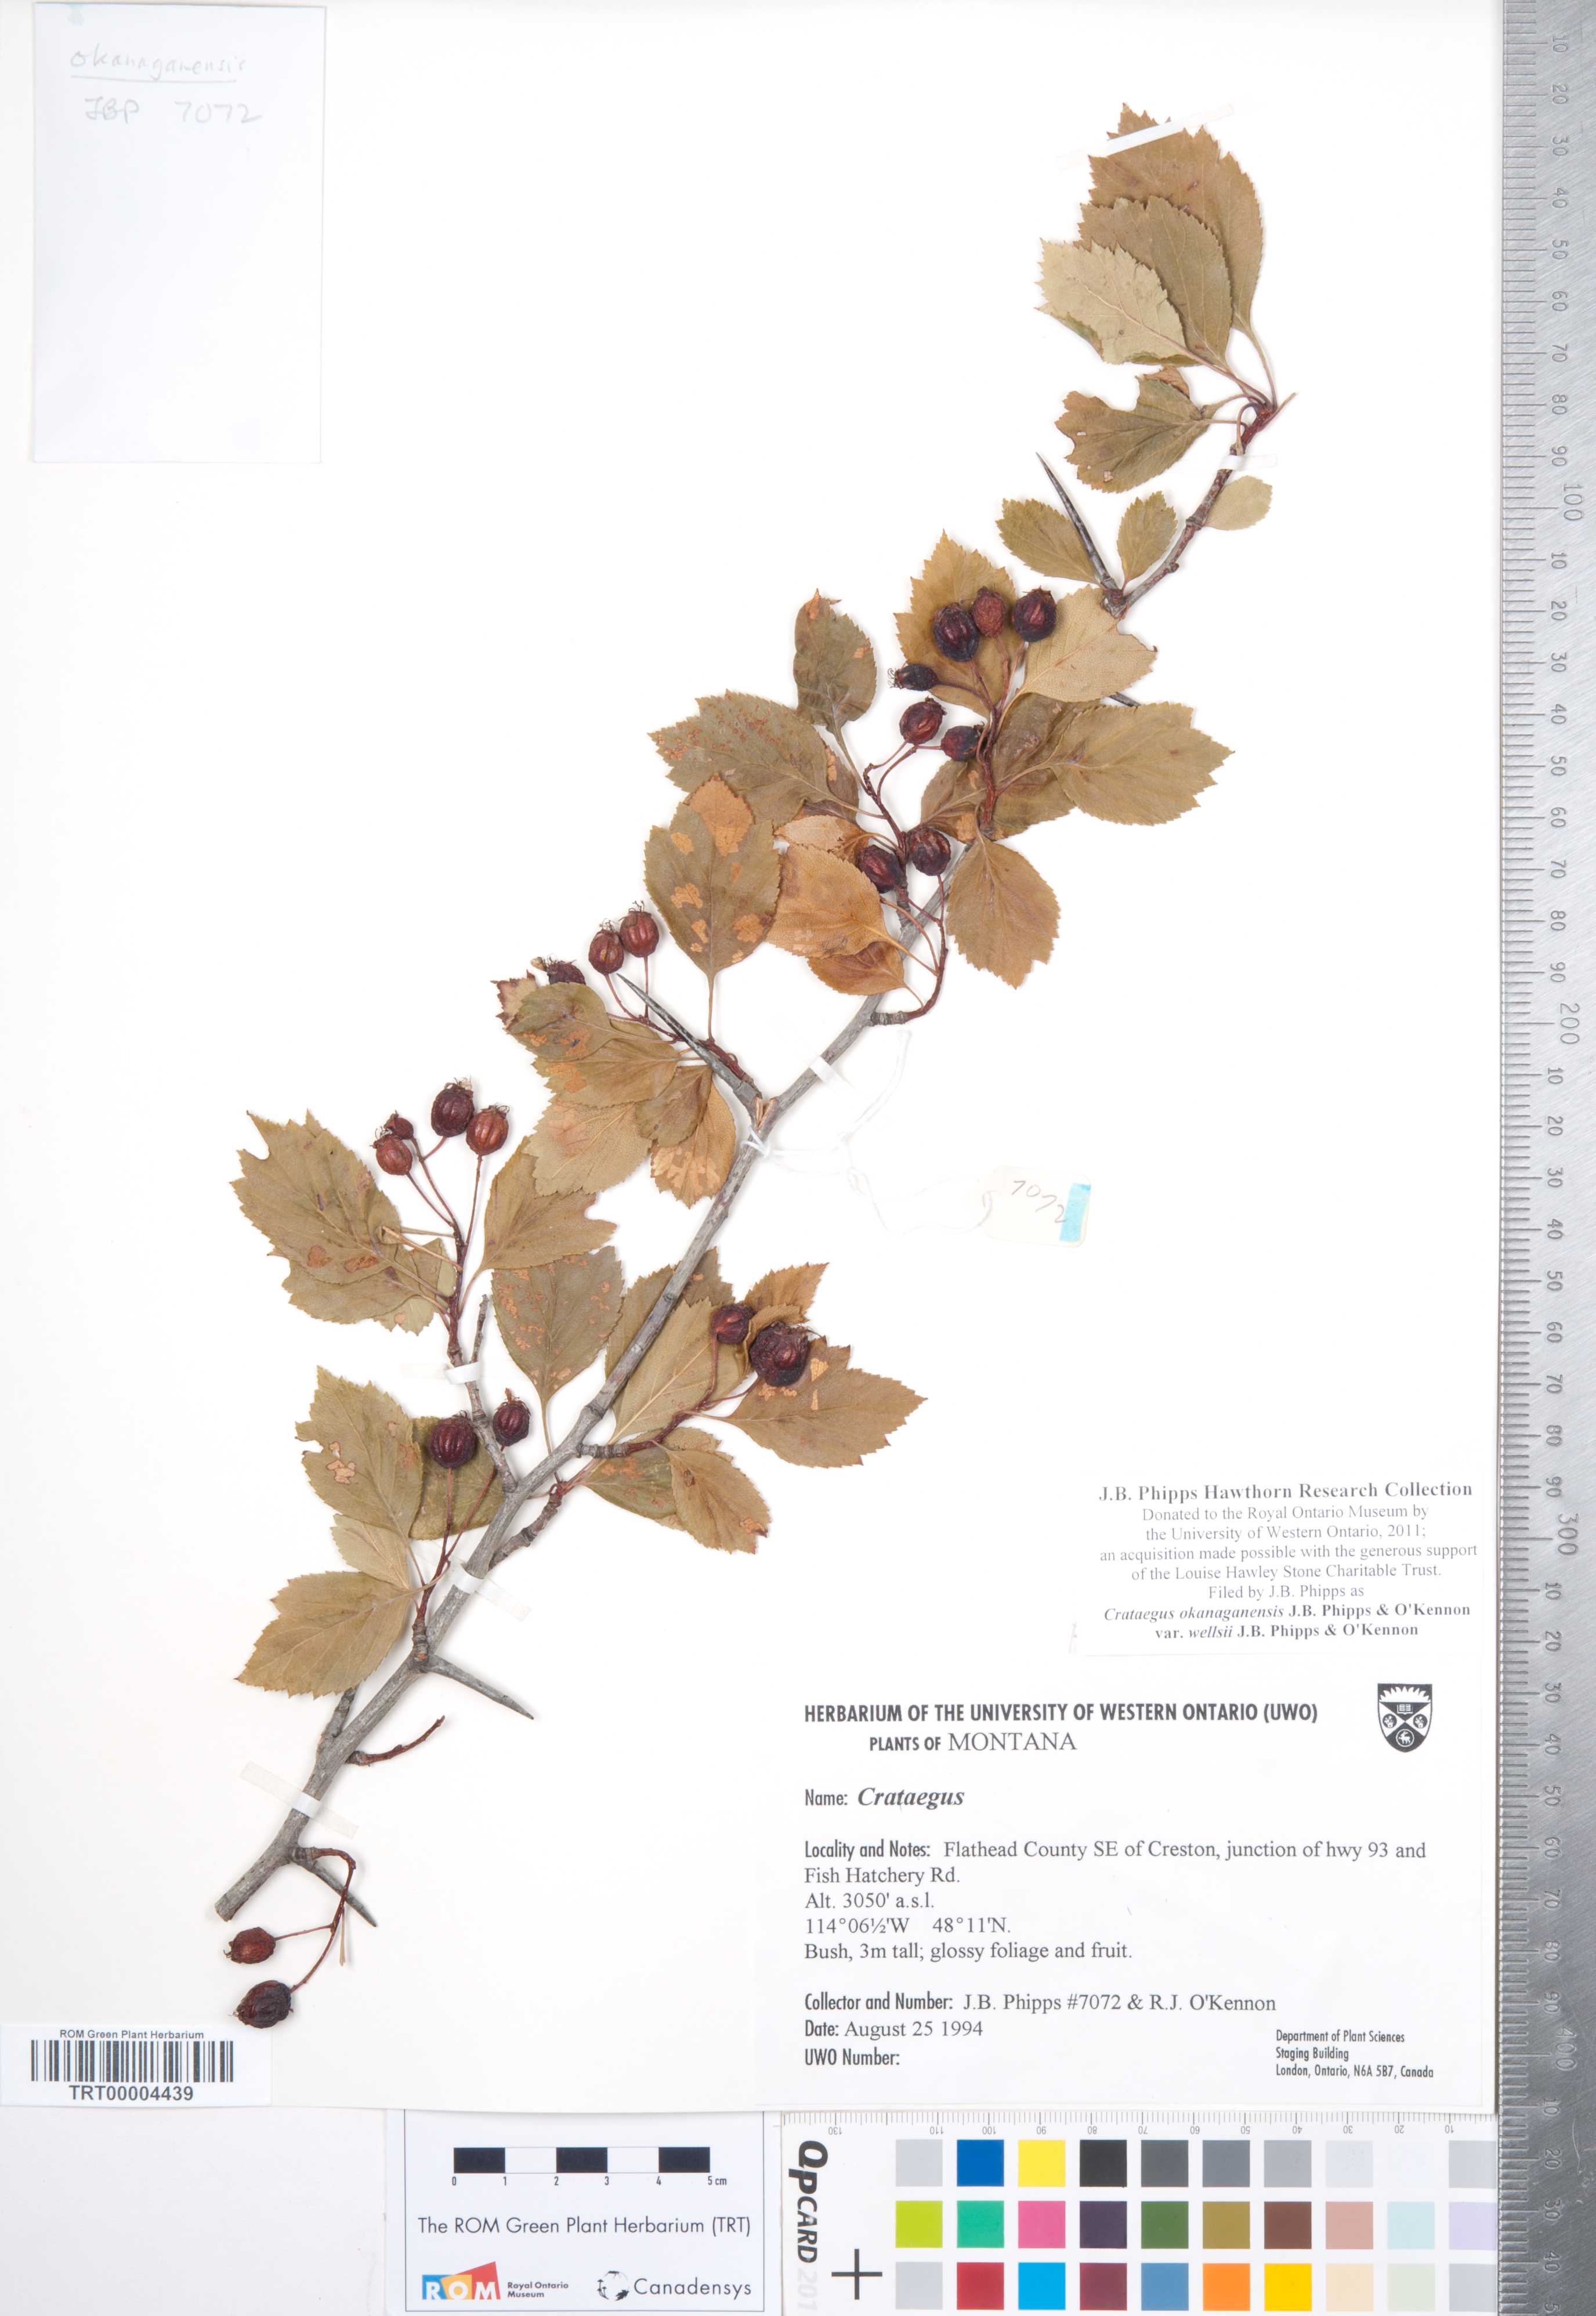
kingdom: Plantae
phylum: Tracheophyta
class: Magnoliopsida
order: Rosales
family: Rosaceae
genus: Crataegus
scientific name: Crataegus okanaganensis
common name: Okanagan valley hawthorn
